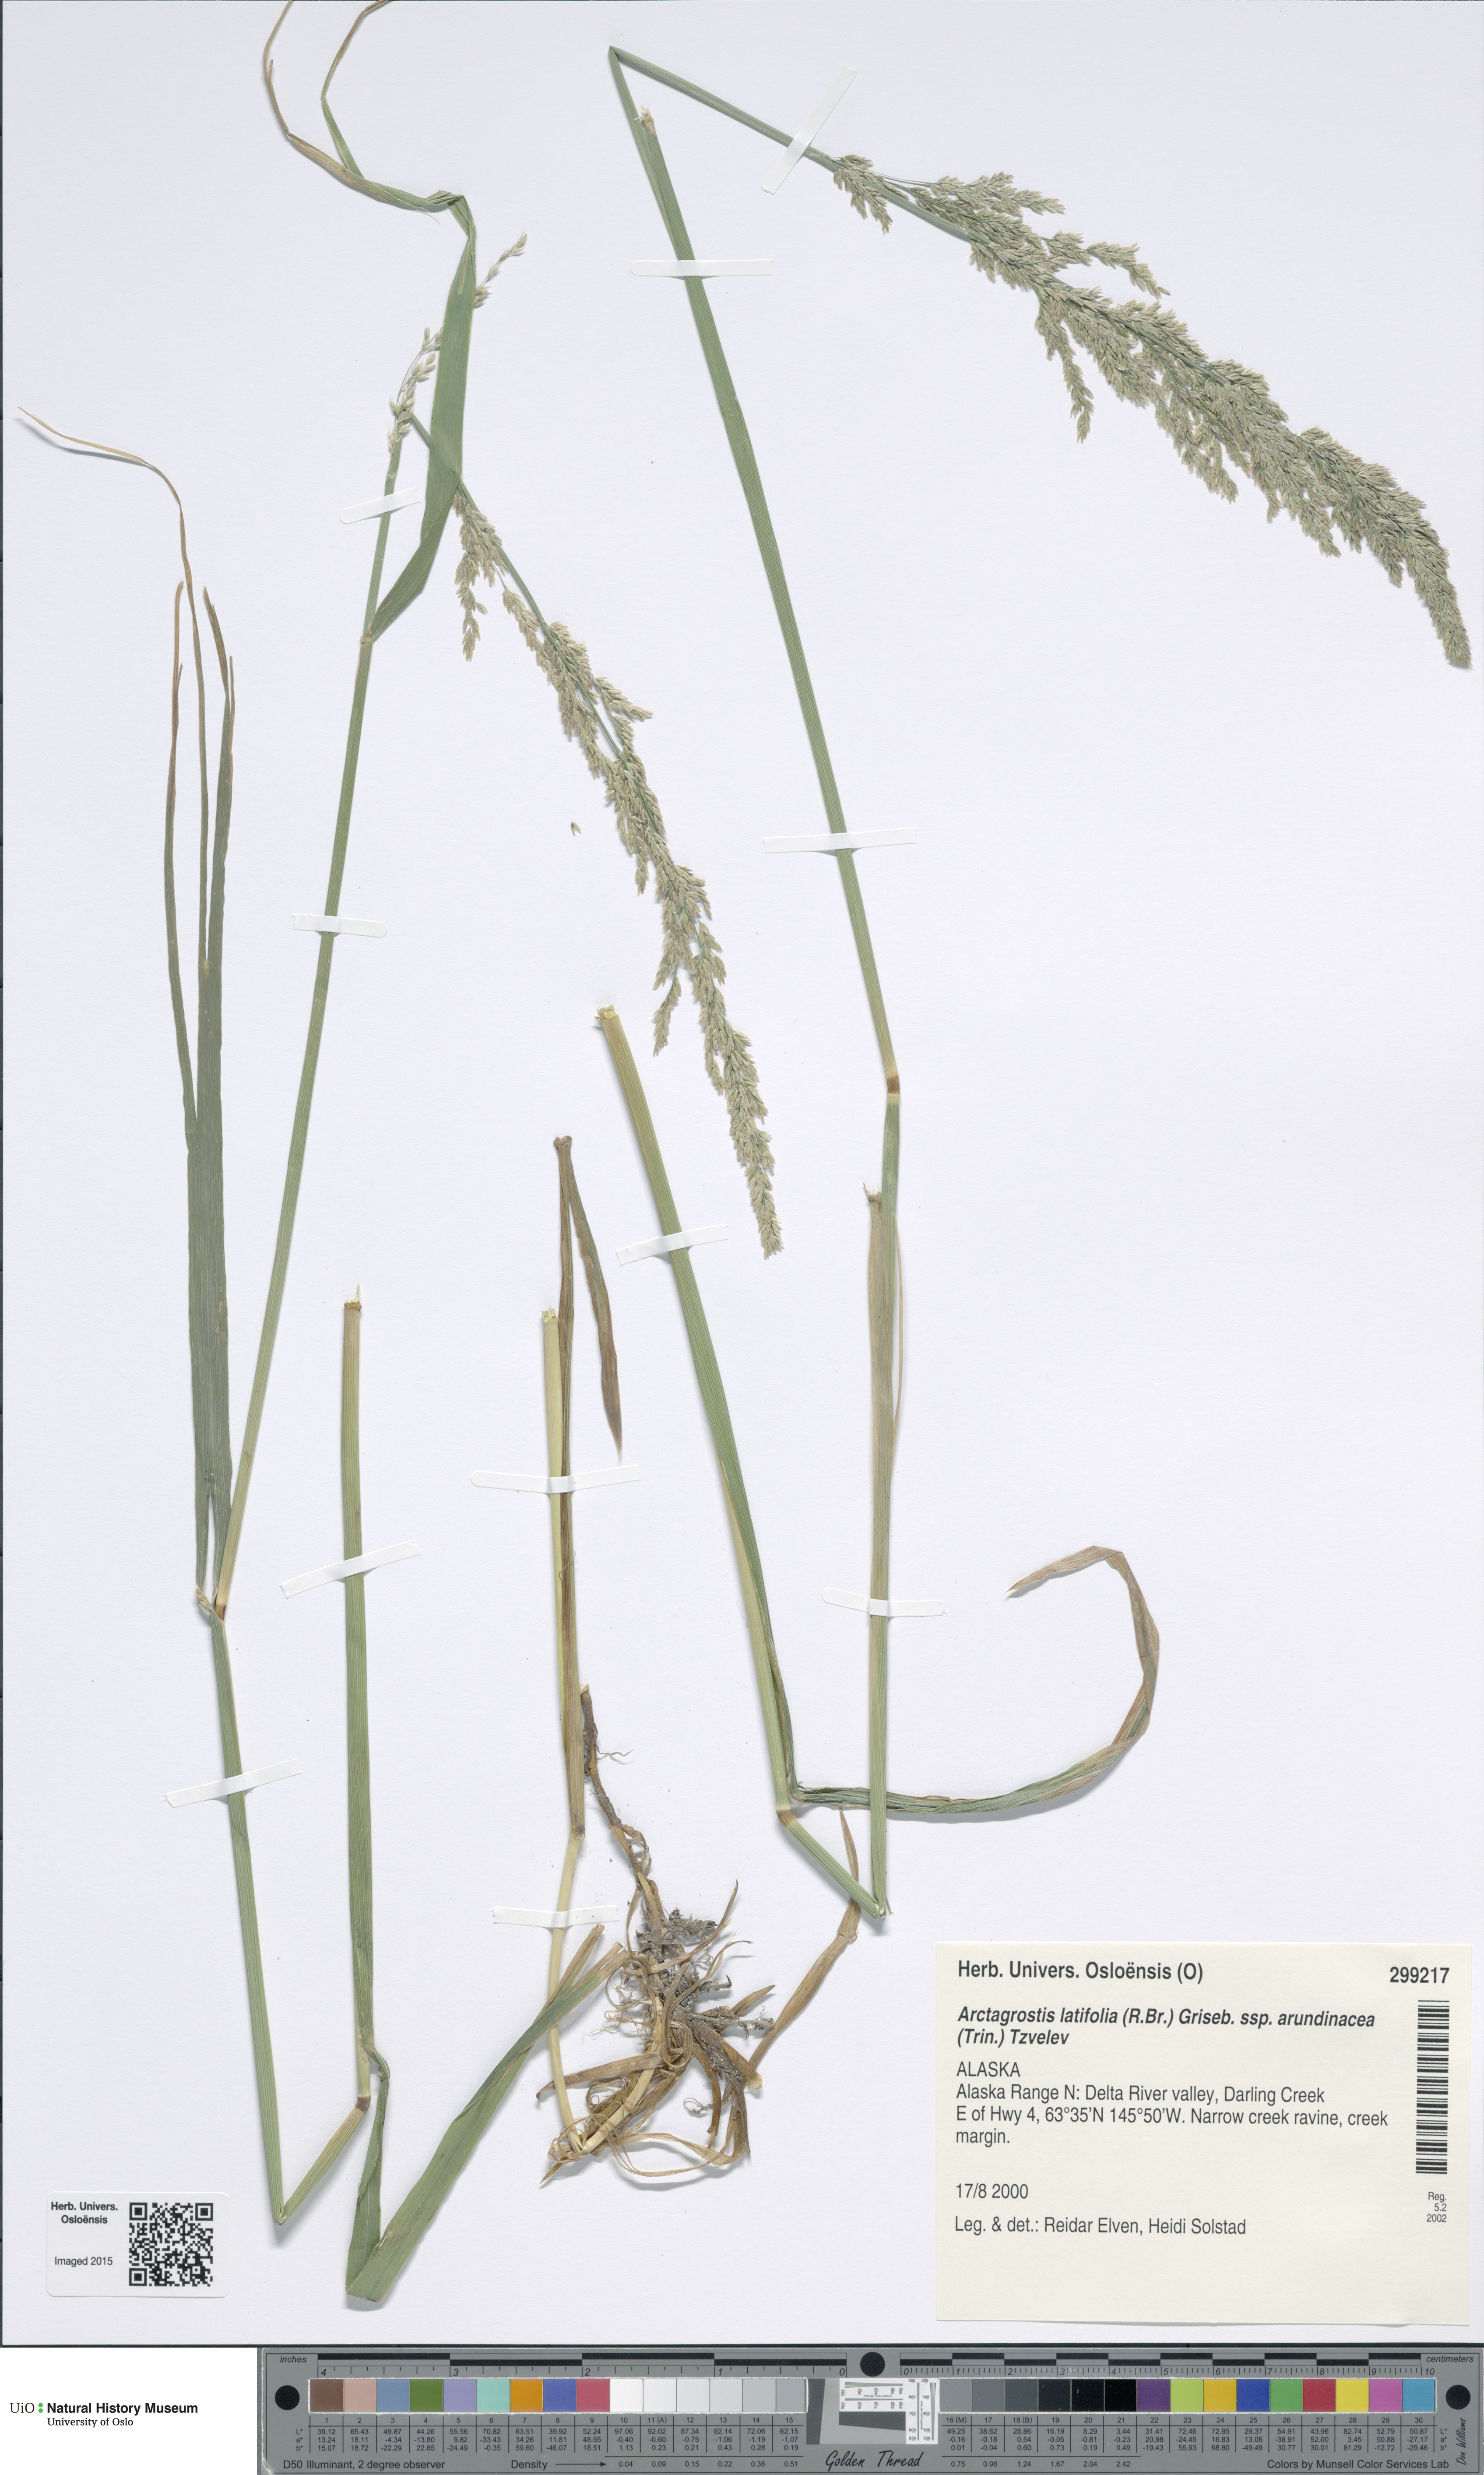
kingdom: Plantae
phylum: Tracheophyta
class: Liliopsida
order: Poales
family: Poaceae
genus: Arctagrostis
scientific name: Arctagrostis arundinacea
